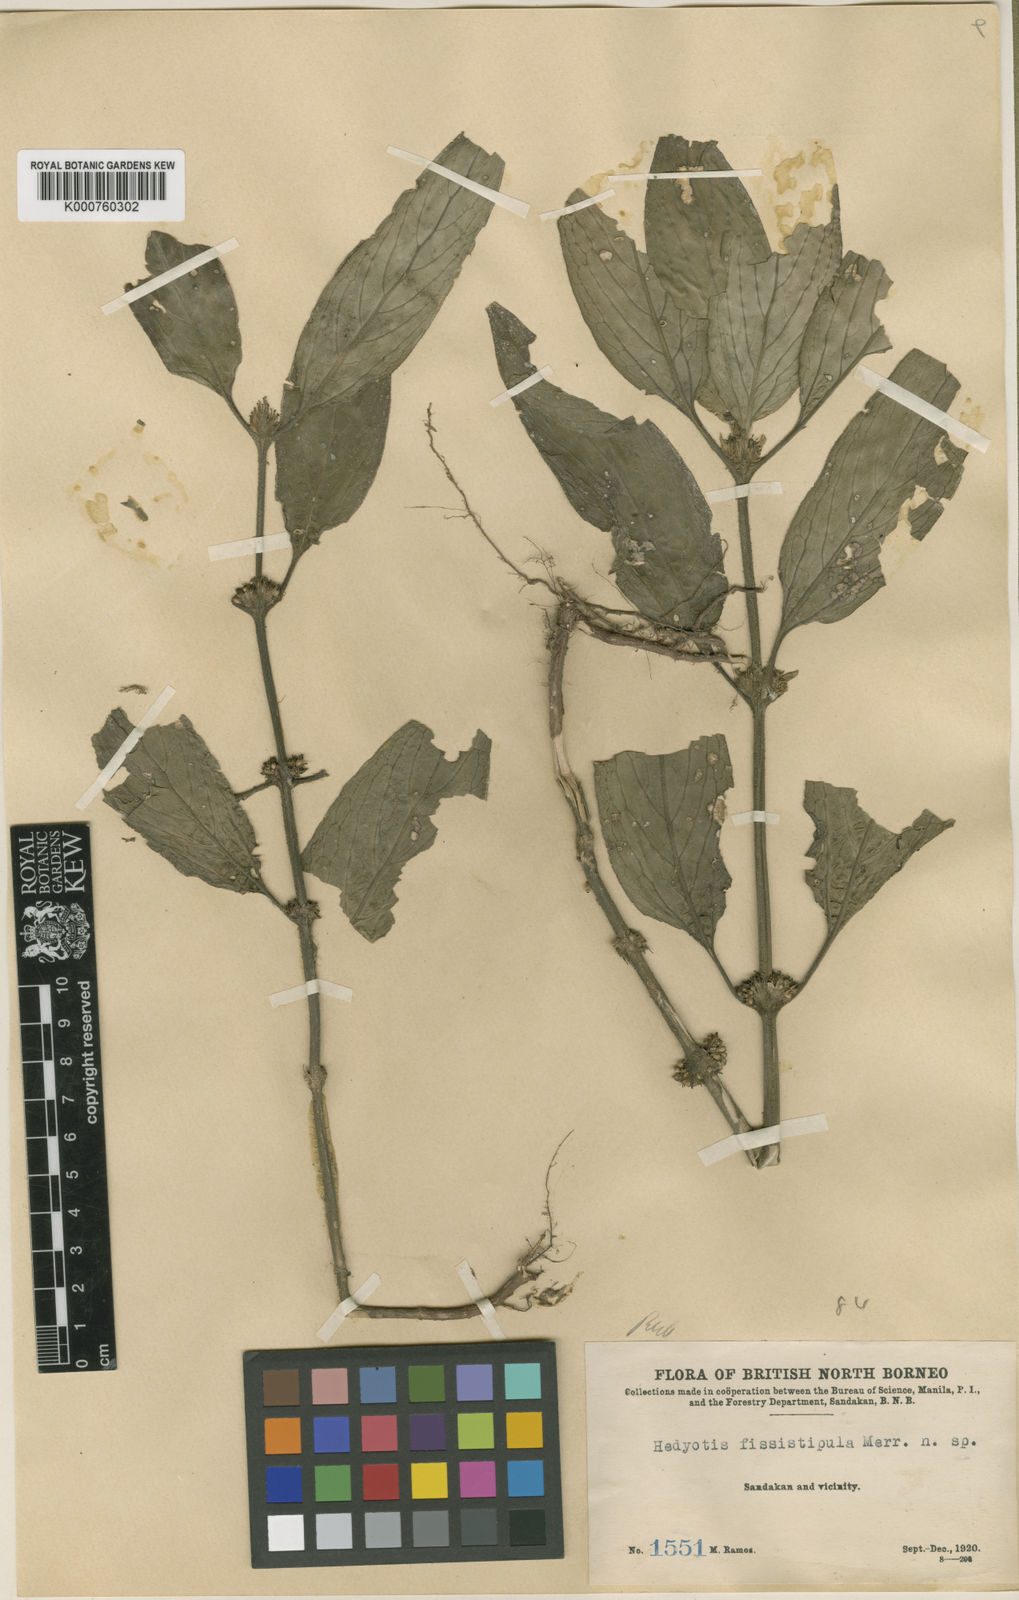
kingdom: Plantae
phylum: Tracheophyta
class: Magnoliopsida
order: Gentianales
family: Rubiaceae
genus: Hedyotis
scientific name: Hedyotis fissistipula
